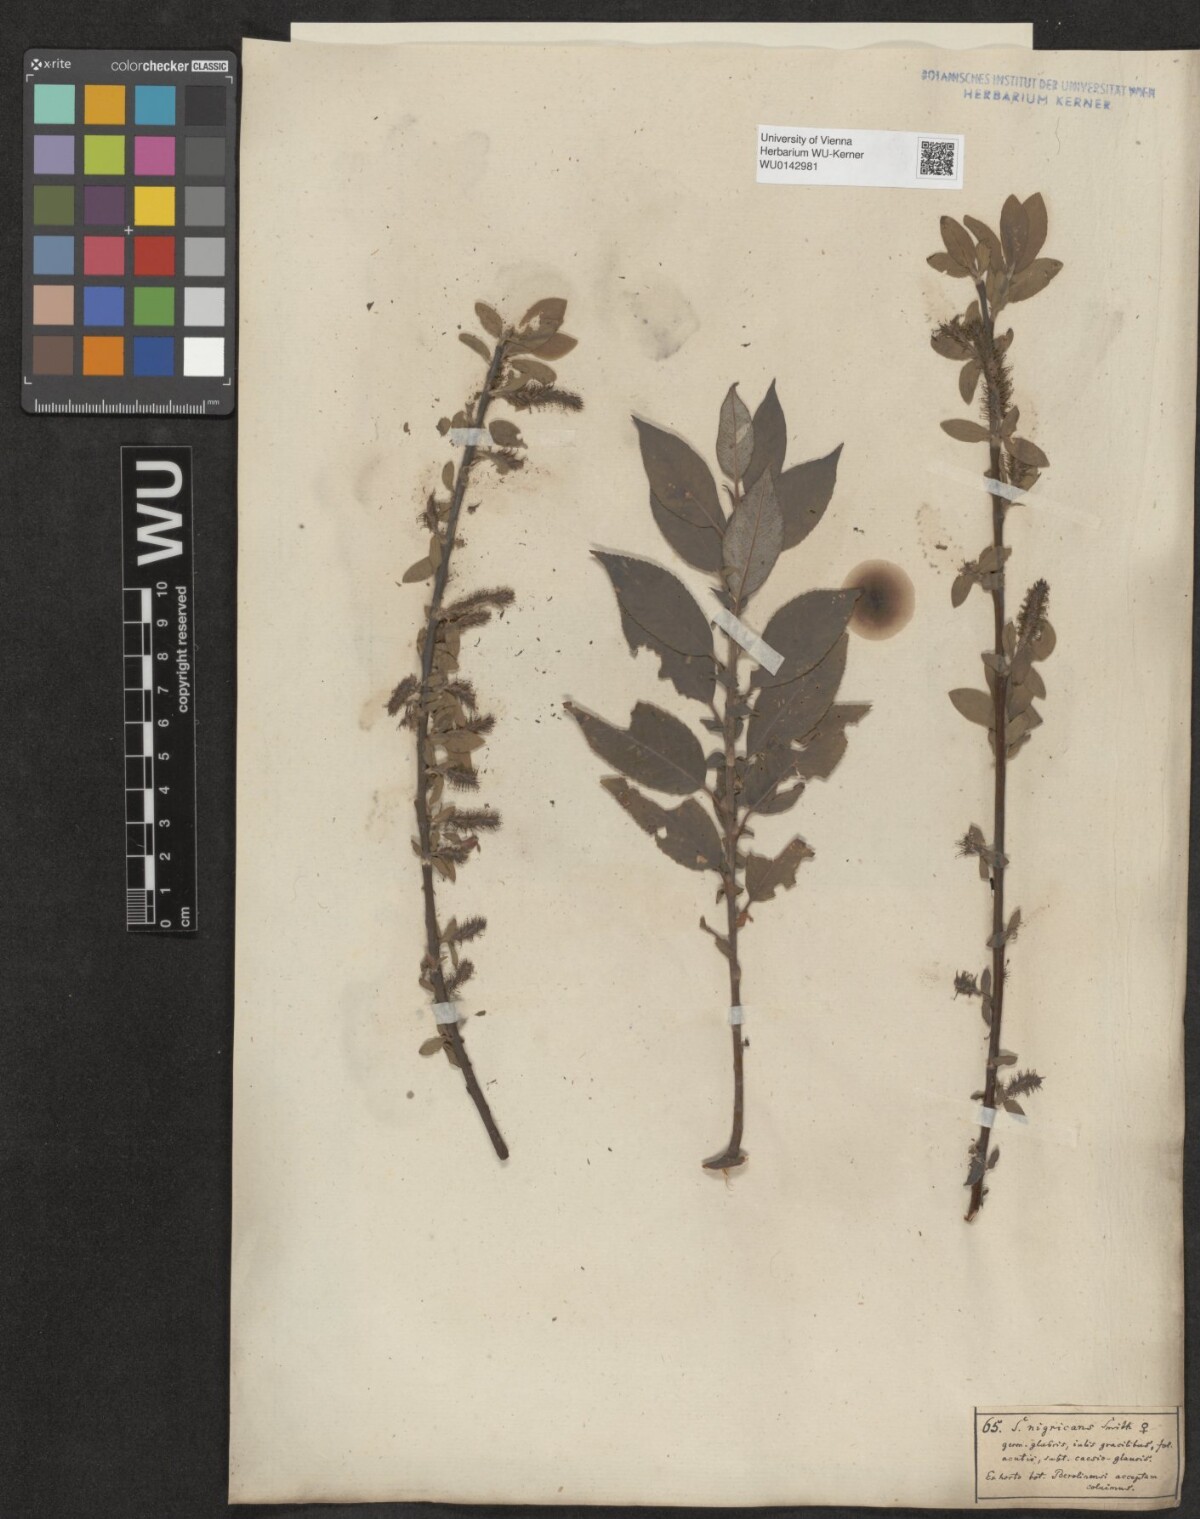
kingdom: Plantae
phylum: Tracheophyta
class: Magnoliopsida
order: Malpighiales
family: Salicaceae
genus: Salix
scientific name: Salix myrsinifolia
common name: Dark-leaved willow
